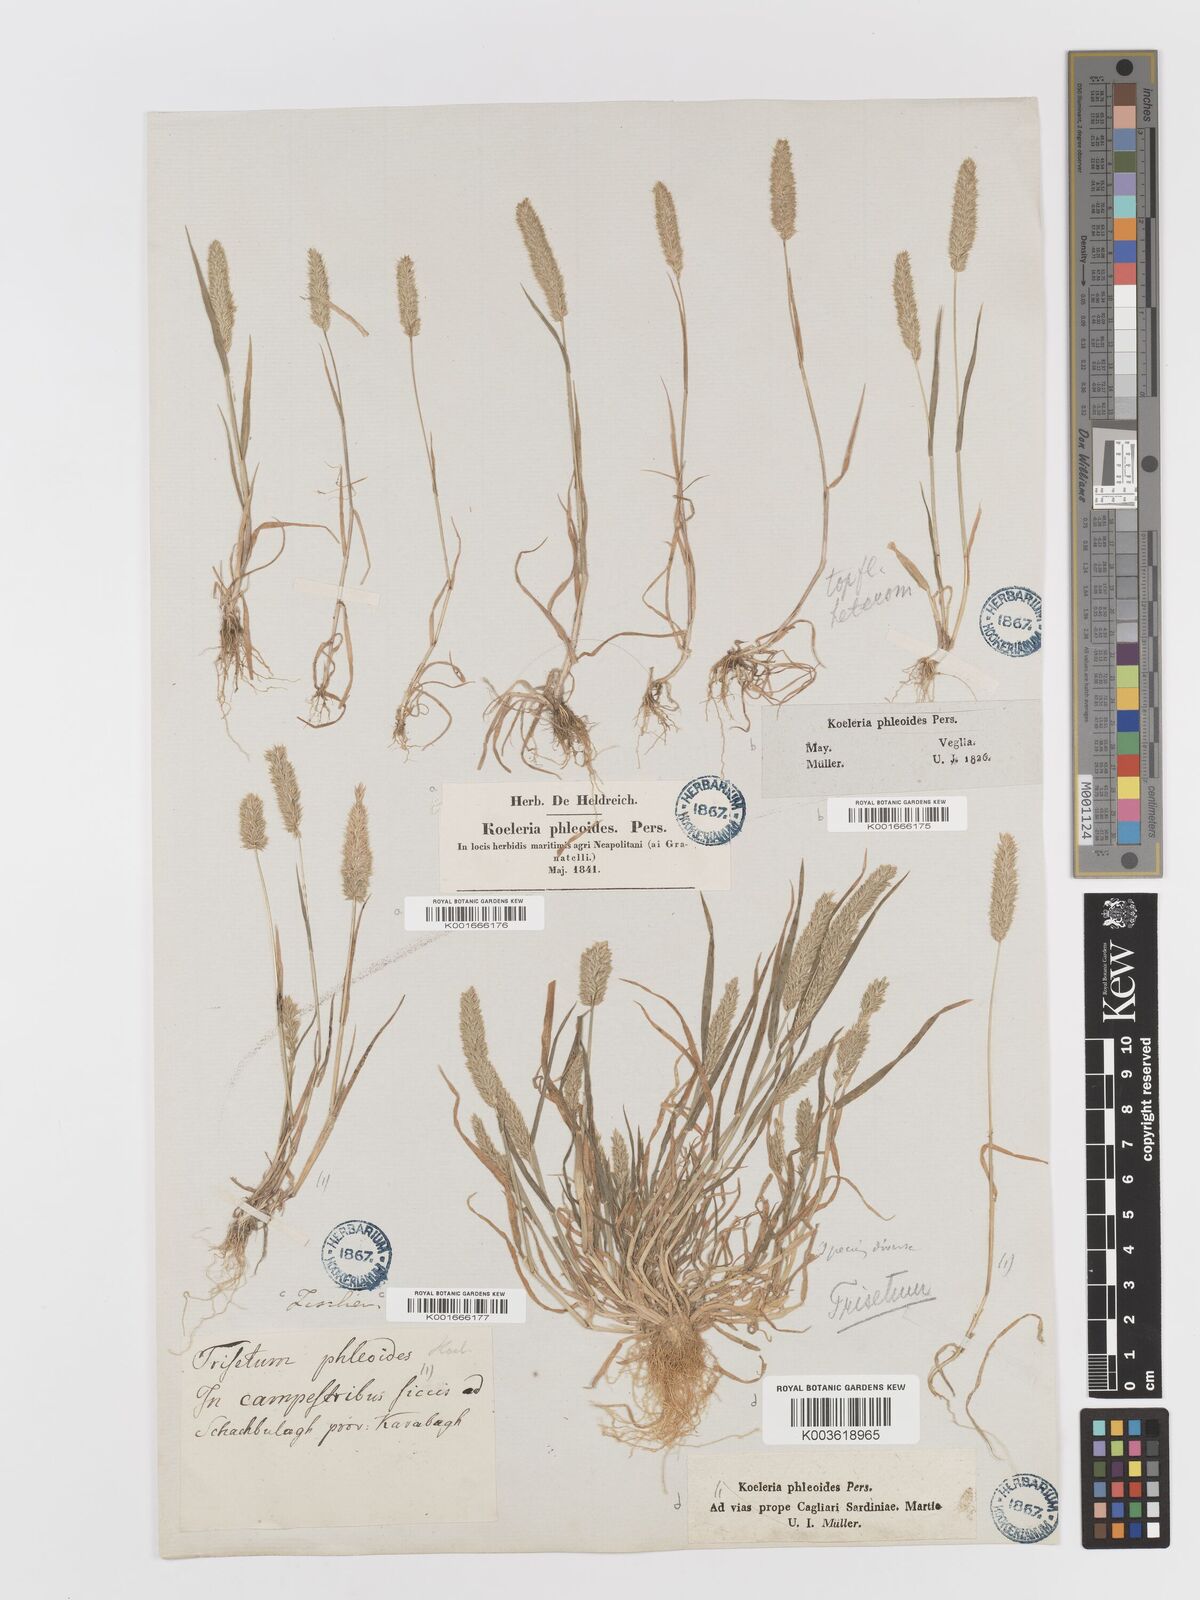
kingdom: Plantae
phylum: Tracheophyta
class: Liliopsida
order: Poales
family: Poaceae
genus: Rostraria
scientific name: Rostraria cristata
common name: Mediterranean hair-grass
